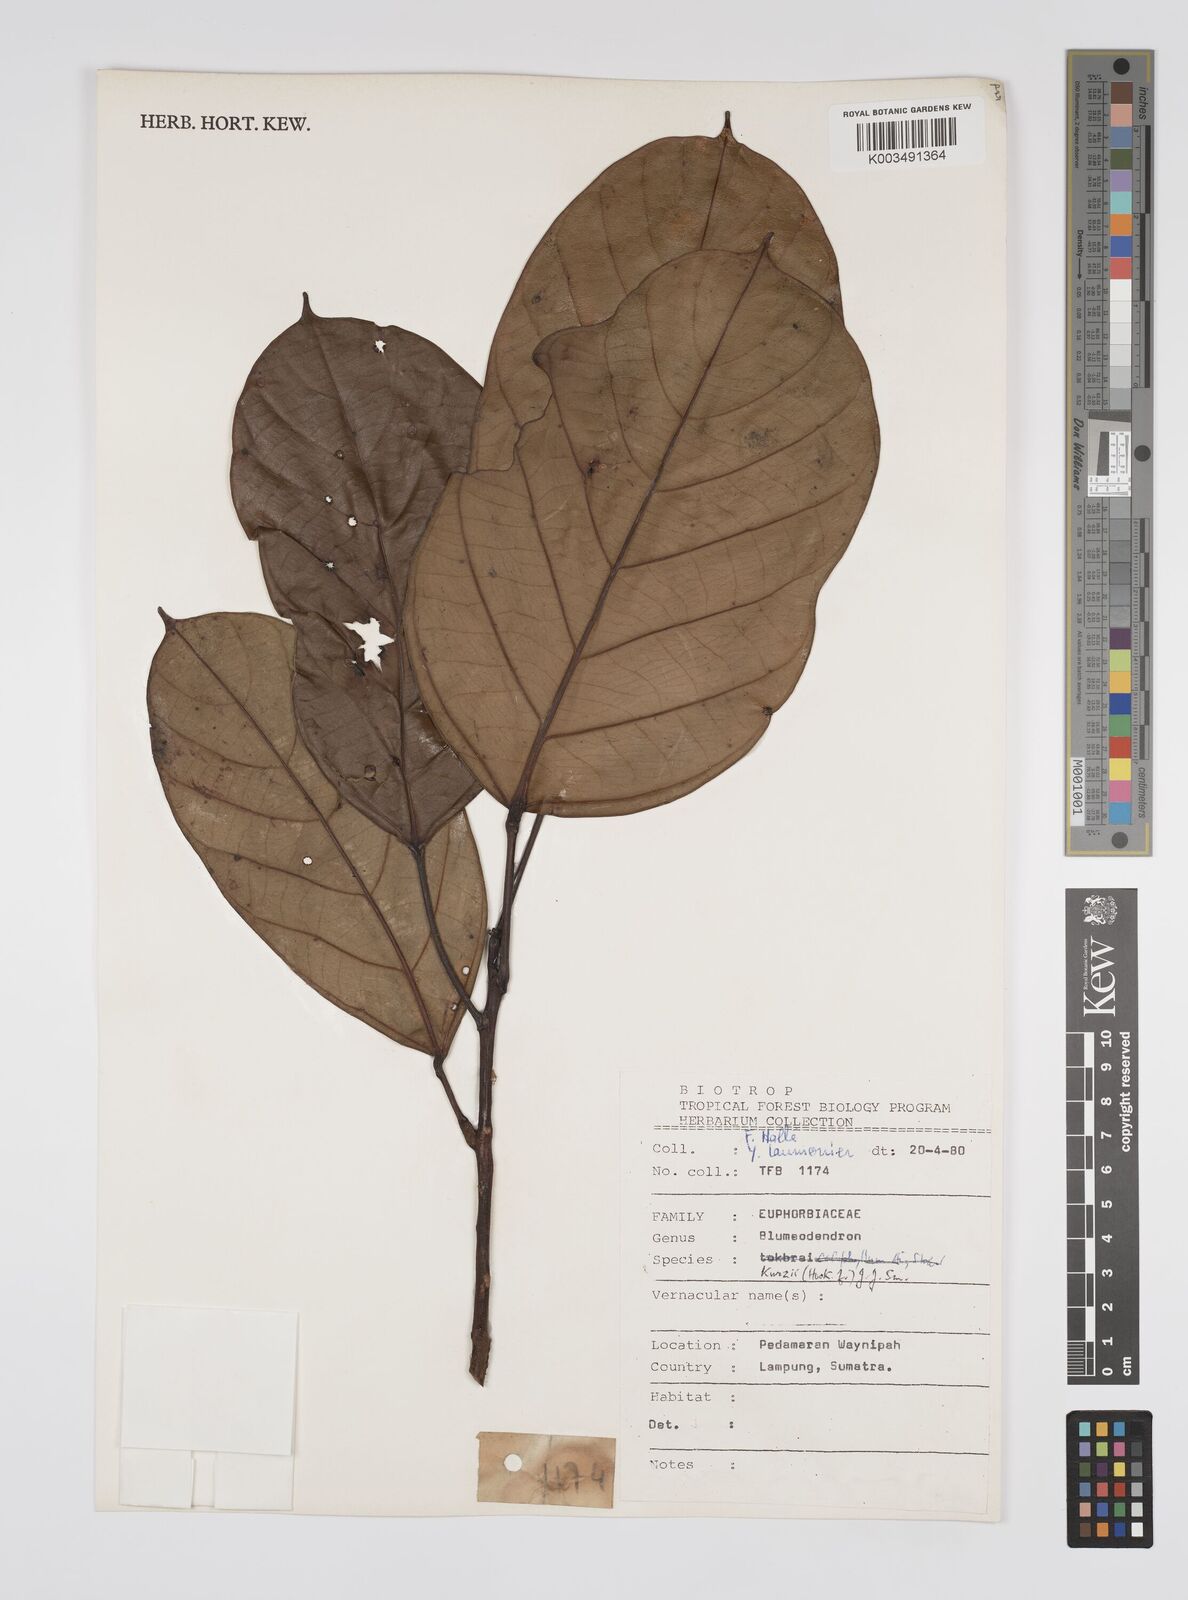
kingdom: Plantae
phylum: Tracheophyta
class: Magnoliopsida
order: Malpighiales
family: Euphorbiaceae
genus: Blumeodendron
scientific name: Blumeodendron kurzii
